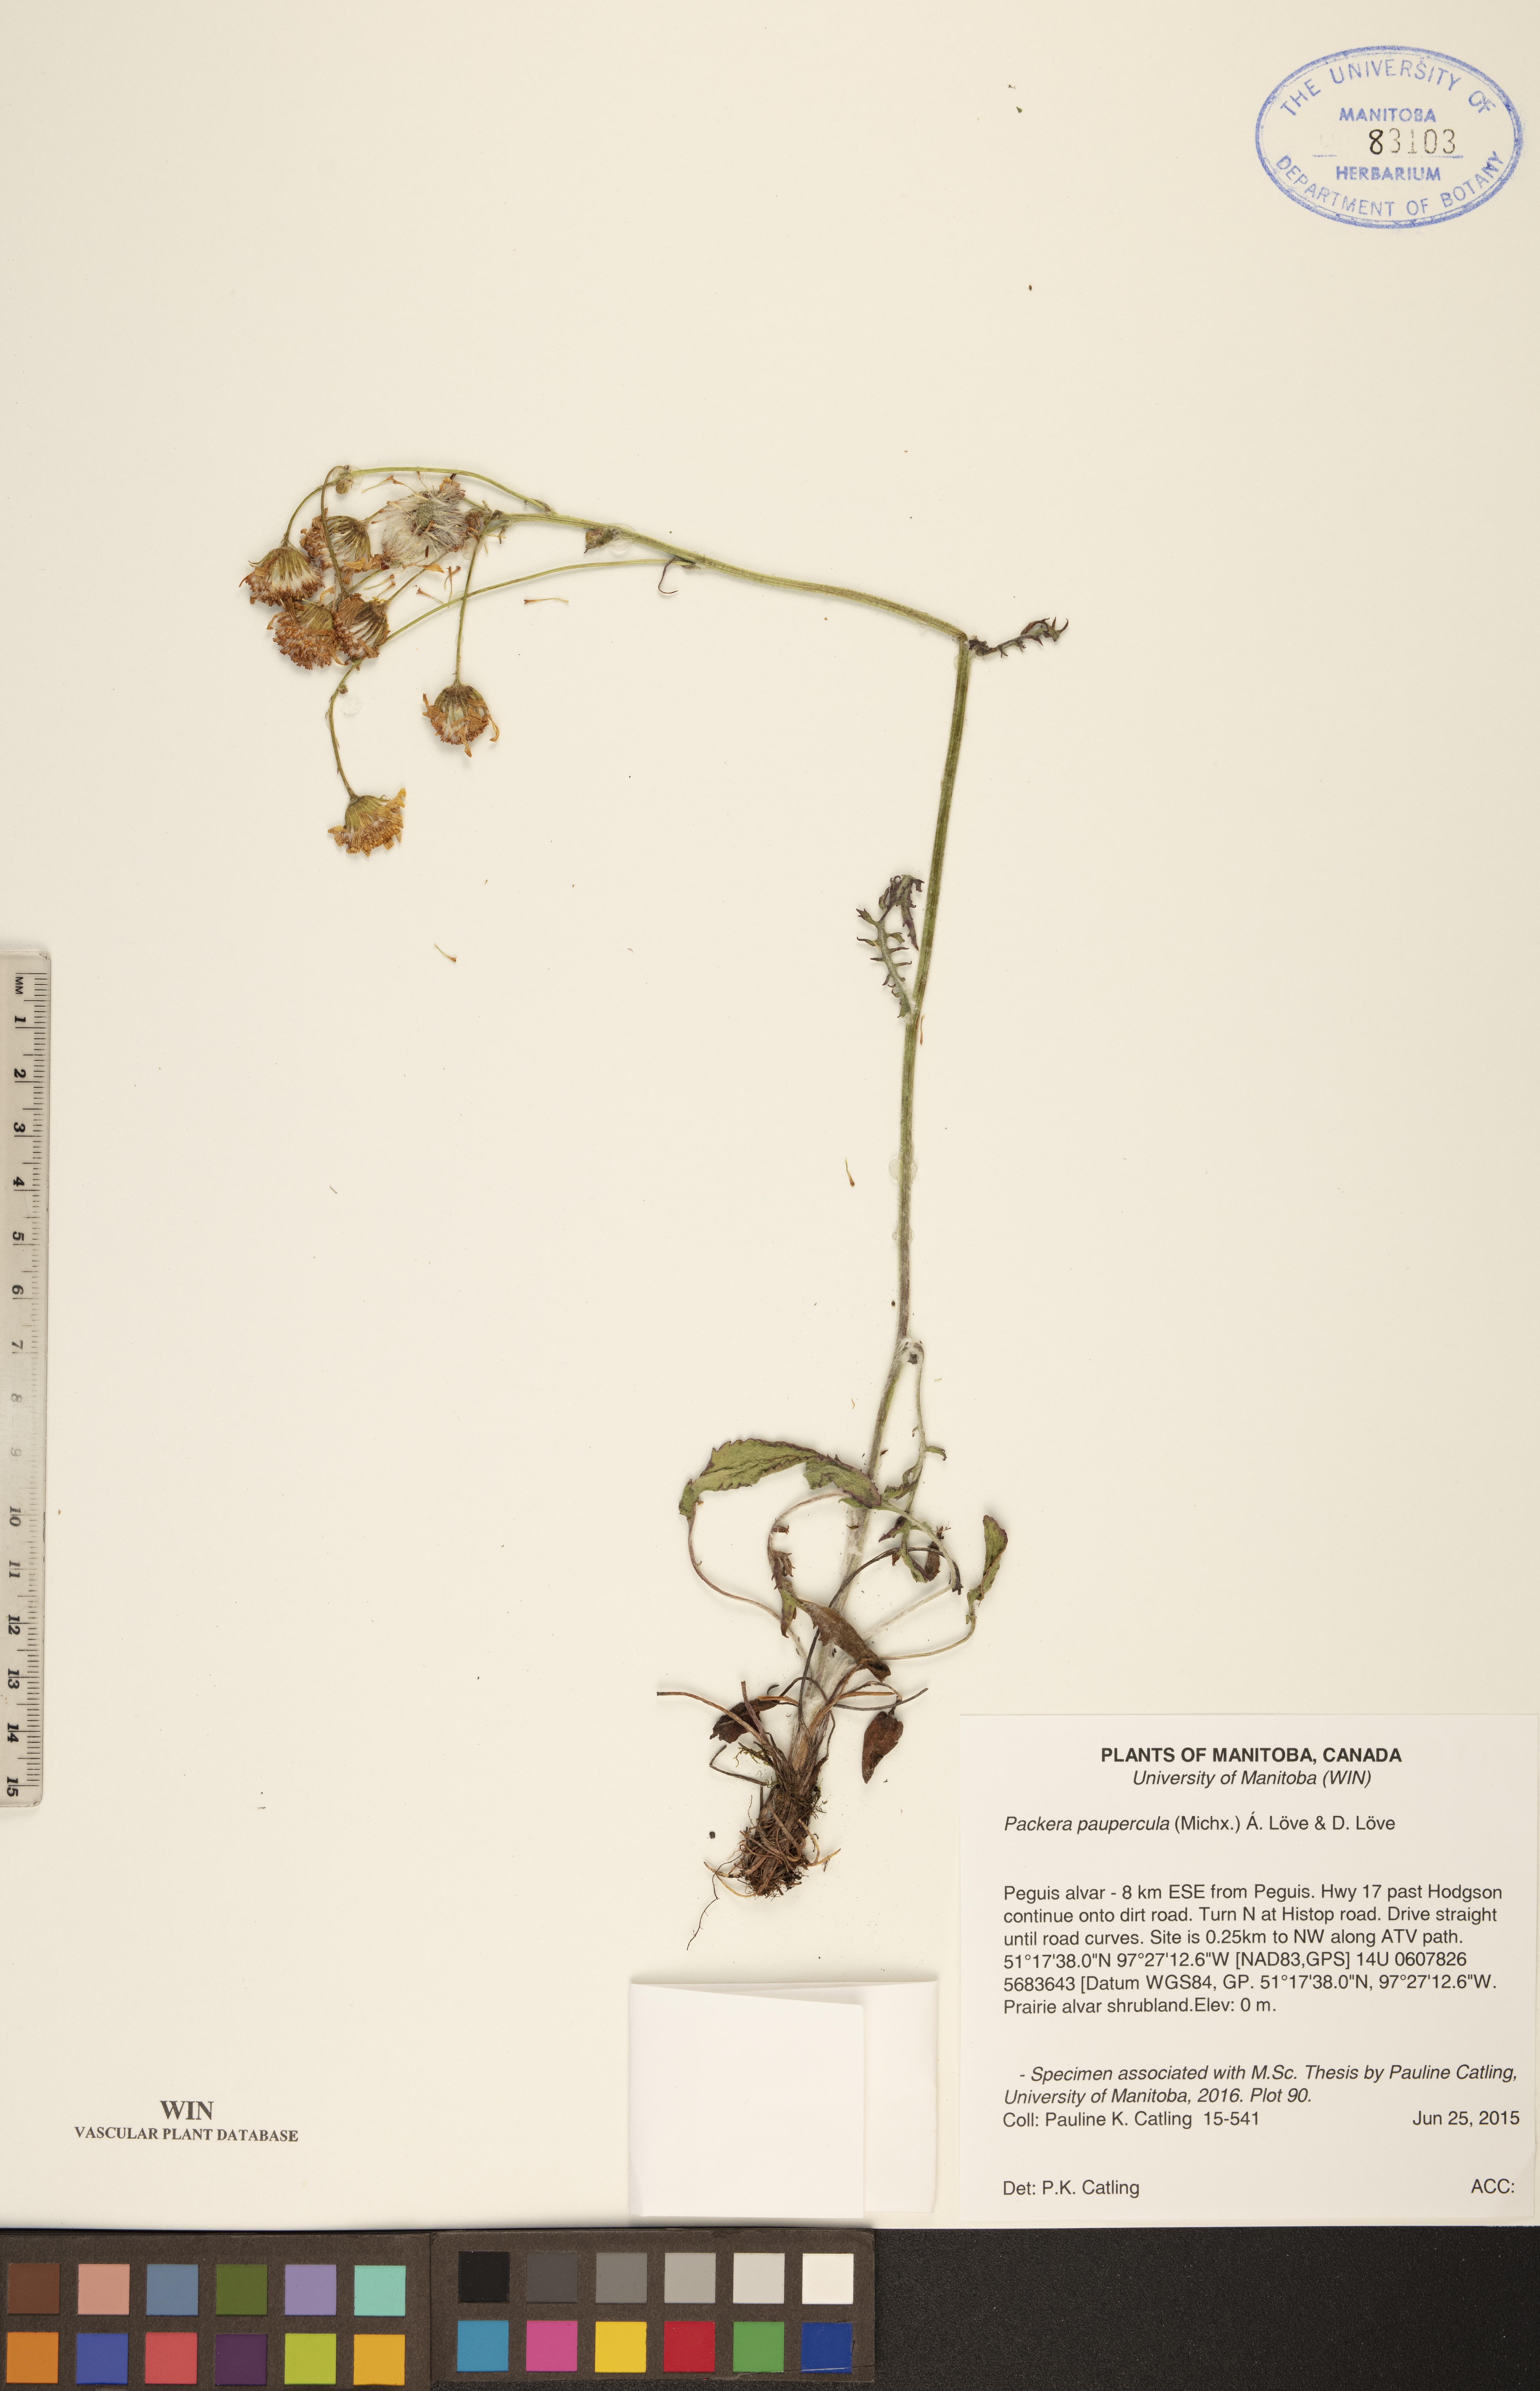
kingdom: Plantae
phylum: Tracheophyta
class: Magnoliopsida
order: Asterales
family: Asteraceae
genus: Packera
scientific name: Packera paupercula
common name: Balsam groundsel
